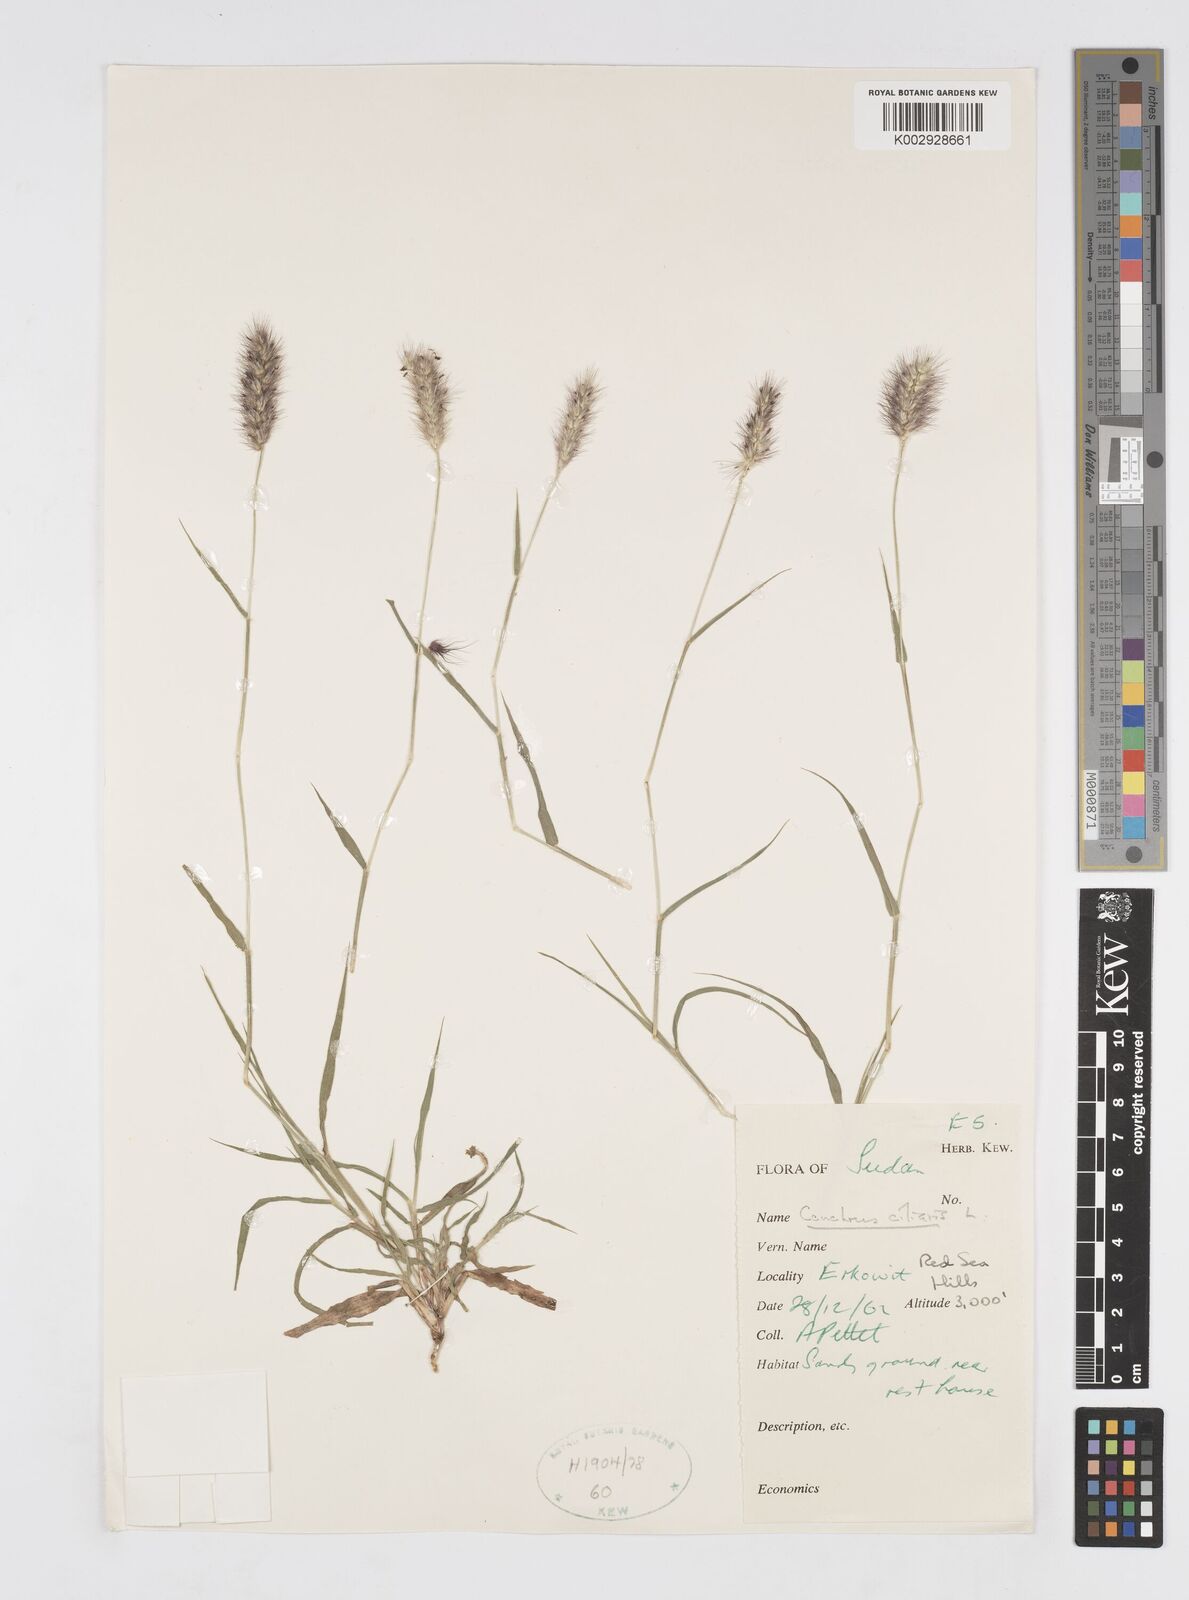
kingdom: Plantae
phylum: Tracheophyta
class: Liliopsida
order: Poales
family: Poaceae
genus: Cenchrus
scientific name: Cenchrus ciliaris
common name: Buffelgrass
